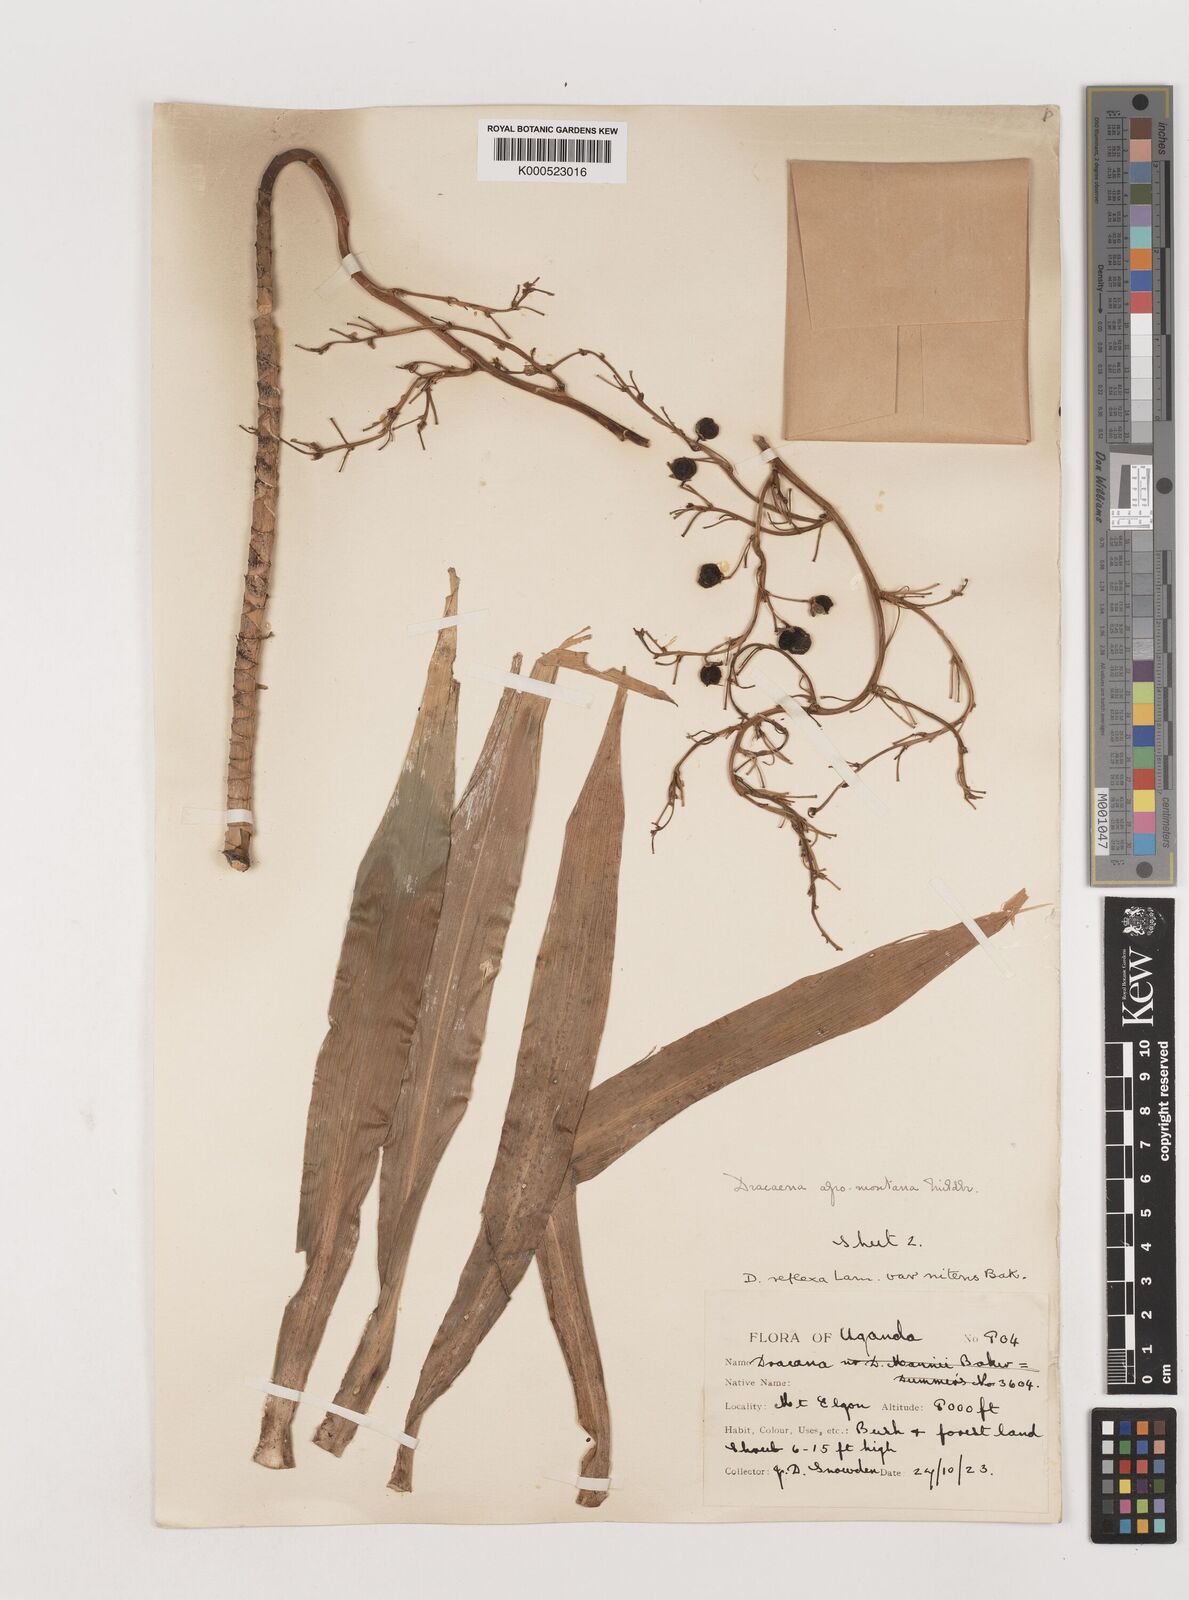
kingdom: Plantae
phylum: Tracheophyta
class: Liliopsida
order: Asparagales
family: Asparagaceae
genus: Dracaena
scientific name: Dracaena afromontana
